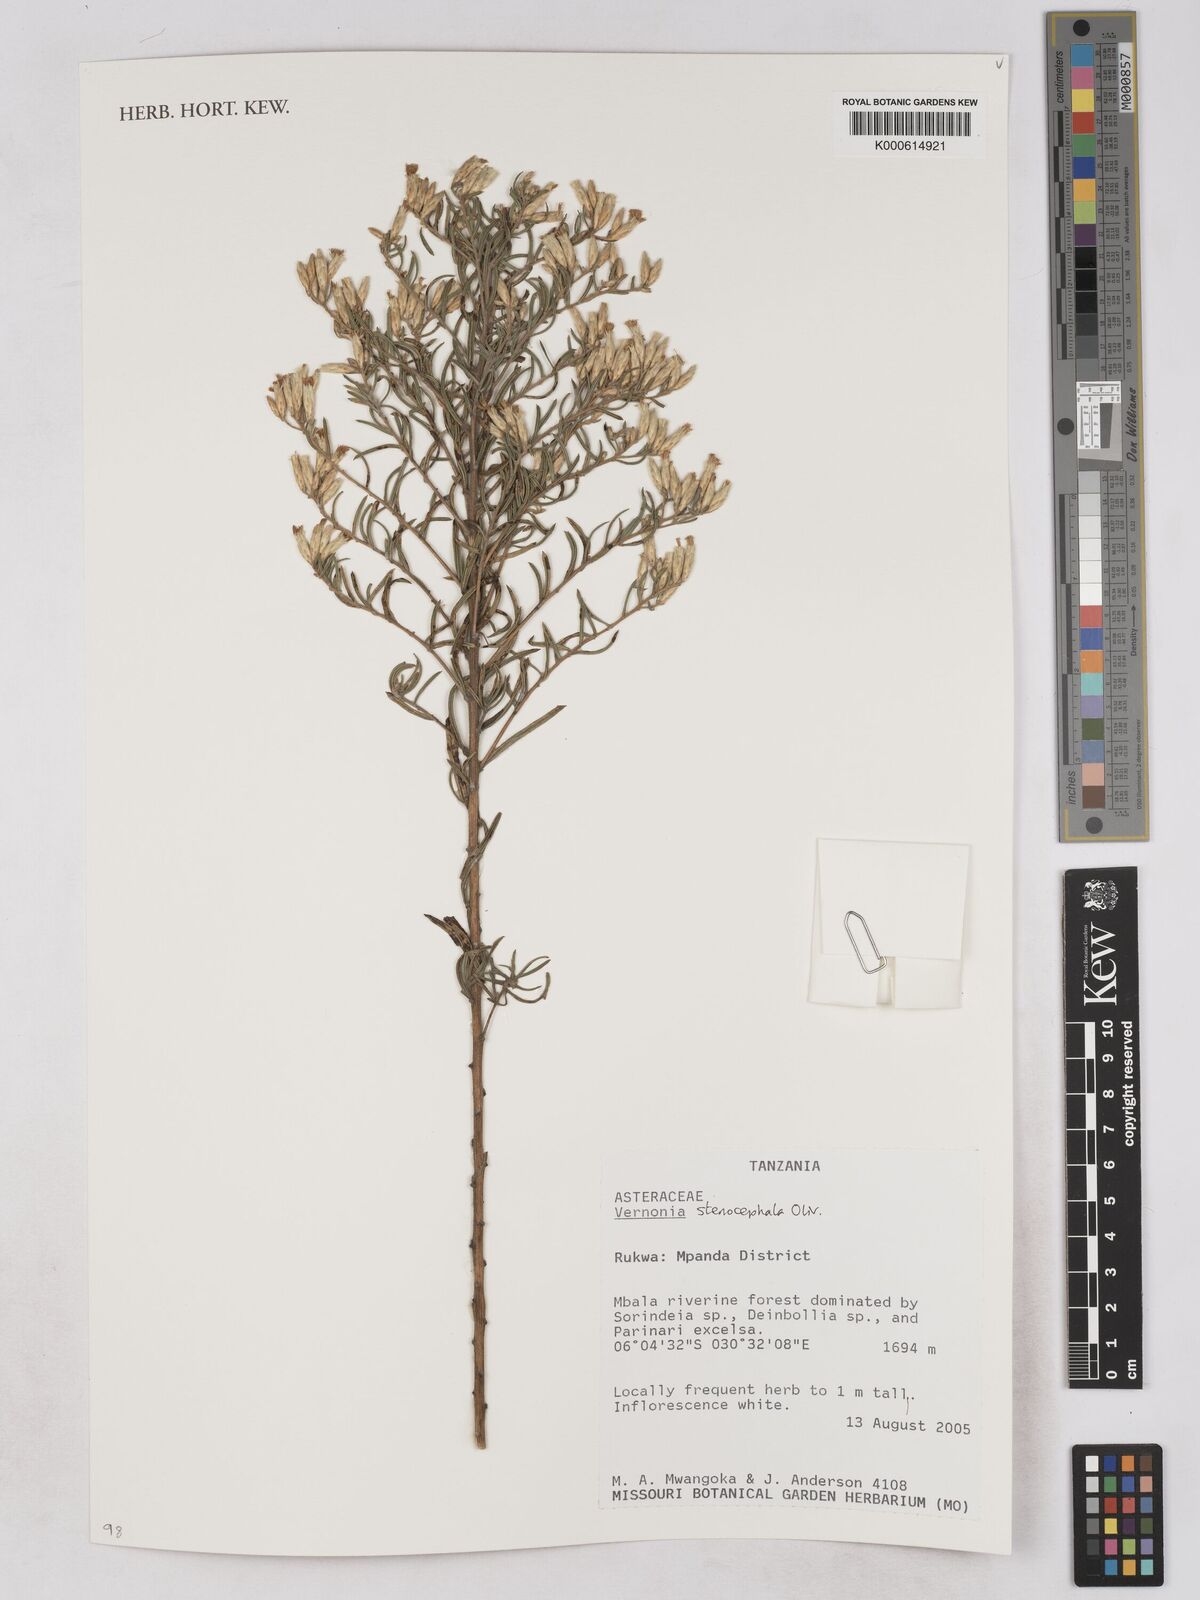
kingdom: Plantae
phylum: Tracheophyta
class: Magnoliopsida
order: Asterales
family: Asteraceae
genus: Oocephala
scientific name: Oocephala stenocephala
